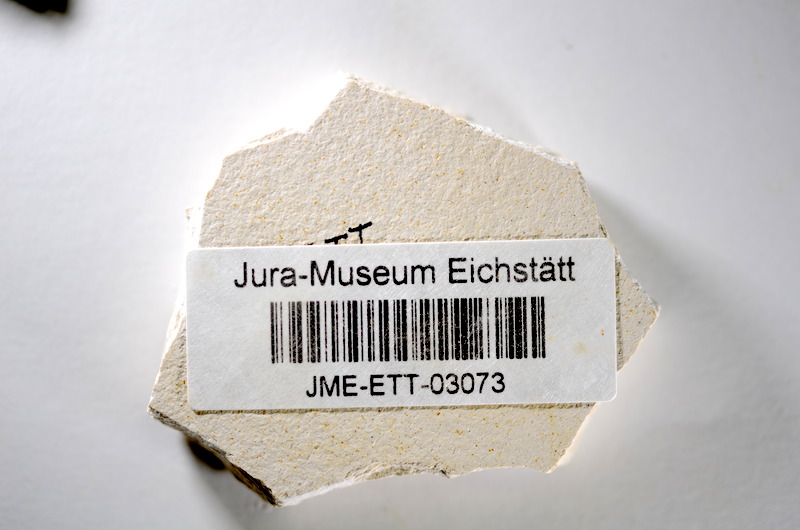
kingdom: Animalia
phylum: Chordata
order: Salmoniformes
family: Orthogonikleithridae
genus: Orthogonikleithrus
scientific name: Orthogonikleithrus hoelli
